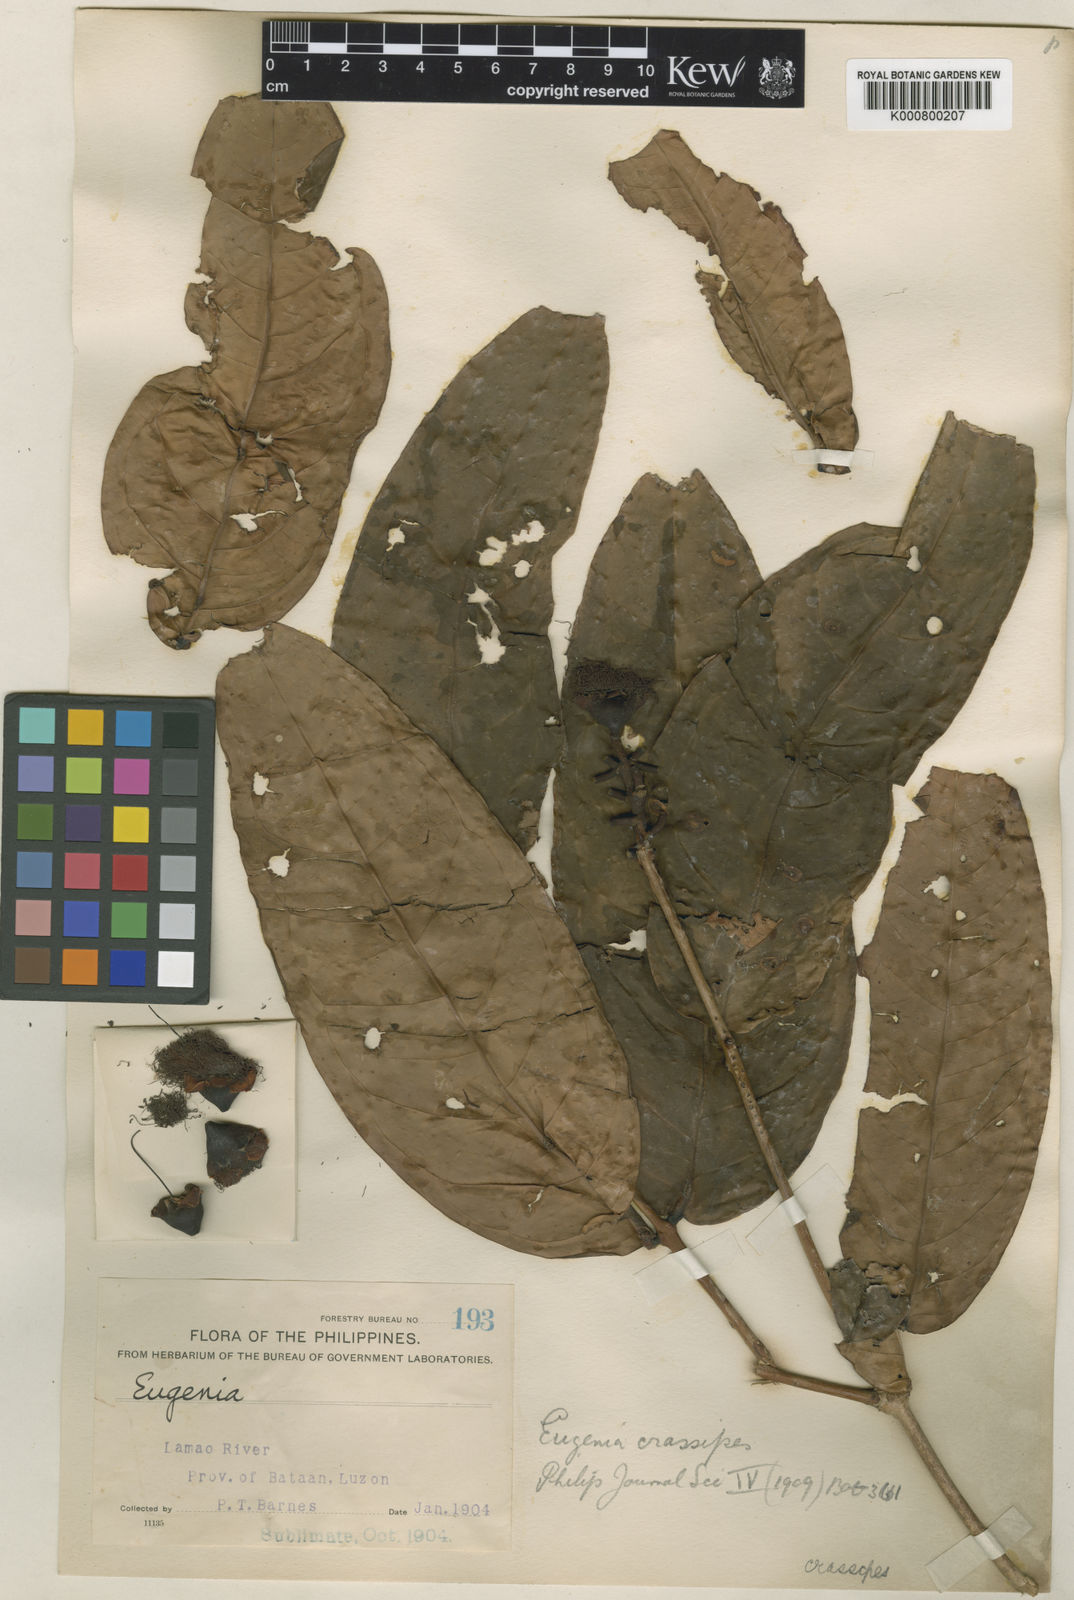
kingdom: Plantae
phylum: Tracheophyta
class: Magnoliopsida
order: Myrtales
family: Myrtaceae
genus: Syzygium
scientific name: Syzygium crassipes
